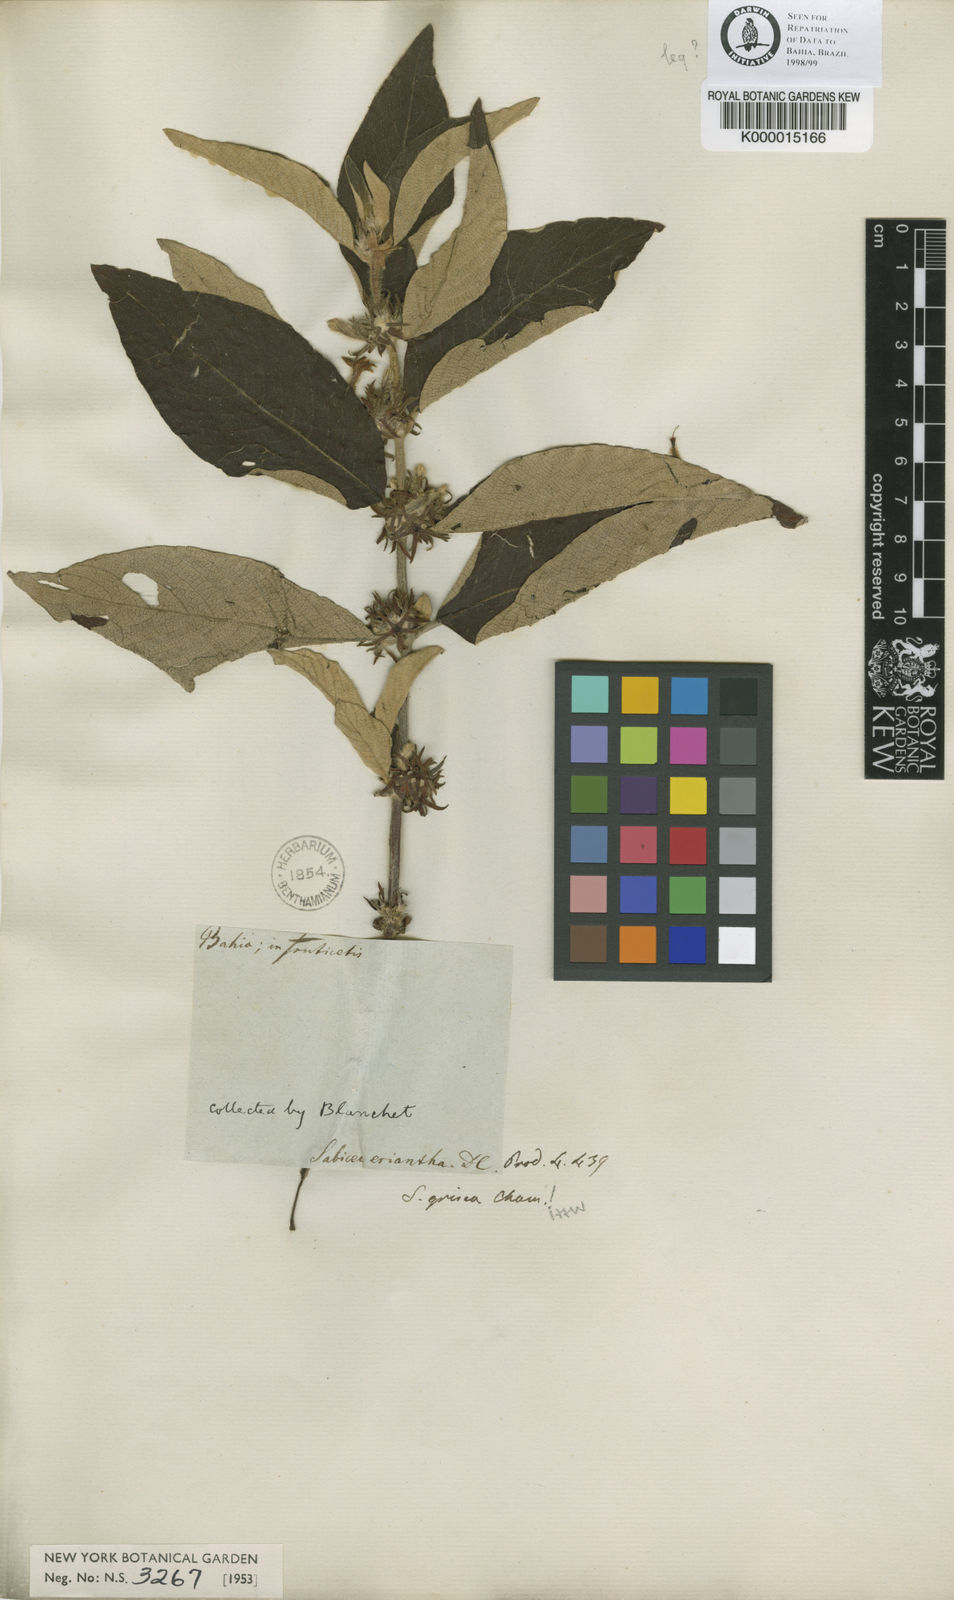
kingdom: Plantae
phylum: Tracheophyta
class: Magnoliopsida
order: Gentianales
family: Rubiaceae
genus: Sabicea
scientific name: Sabicea grisea
